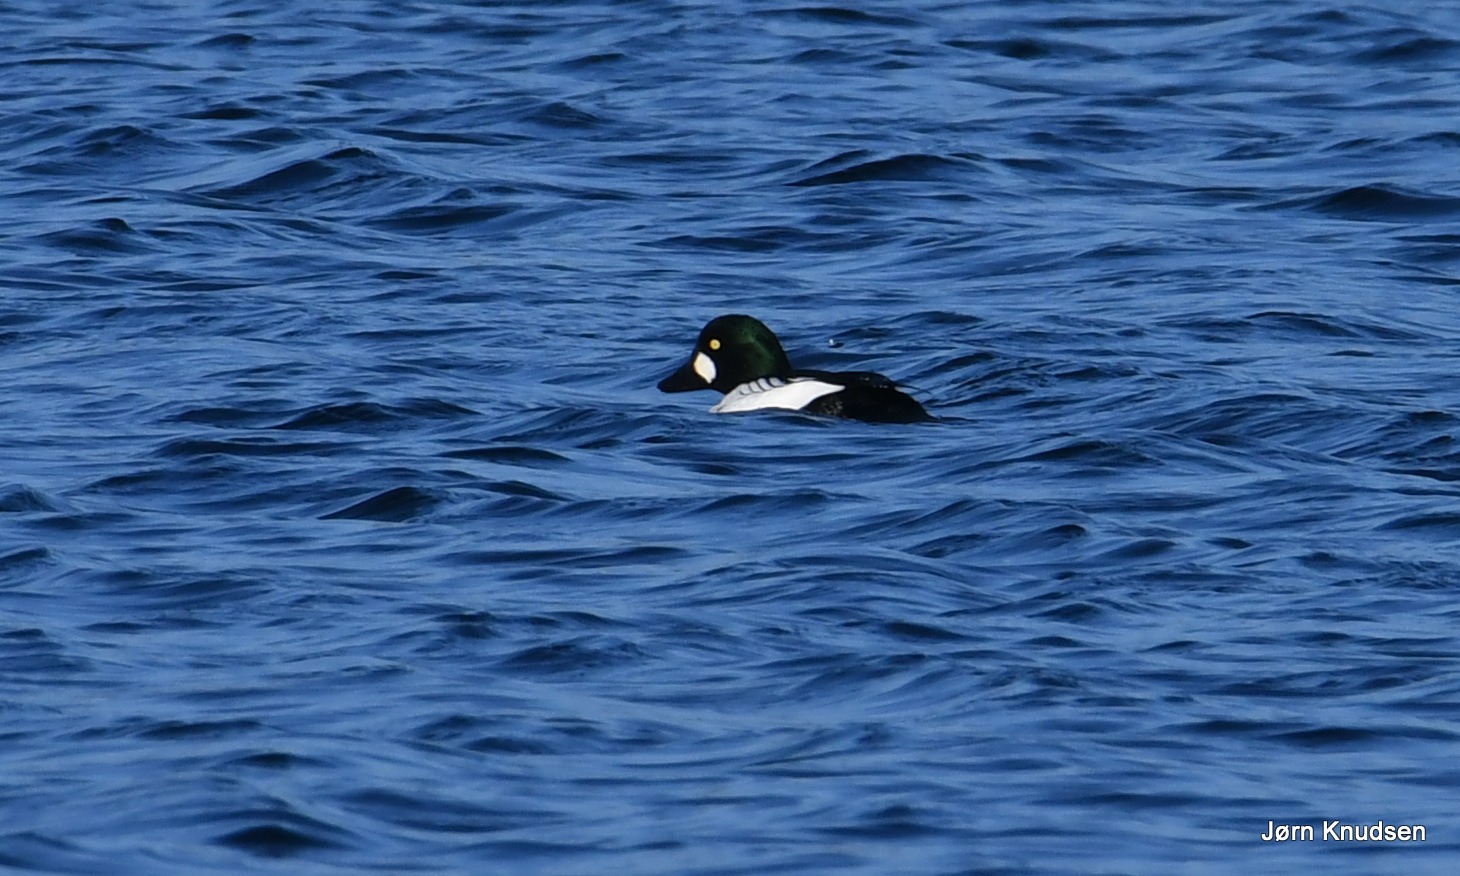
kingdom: Animalia
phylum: Chordata
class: Aves
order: Anseriformes
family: Anatidae
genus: Bucephala
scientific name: Bucephala clangula
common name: Hvinand
